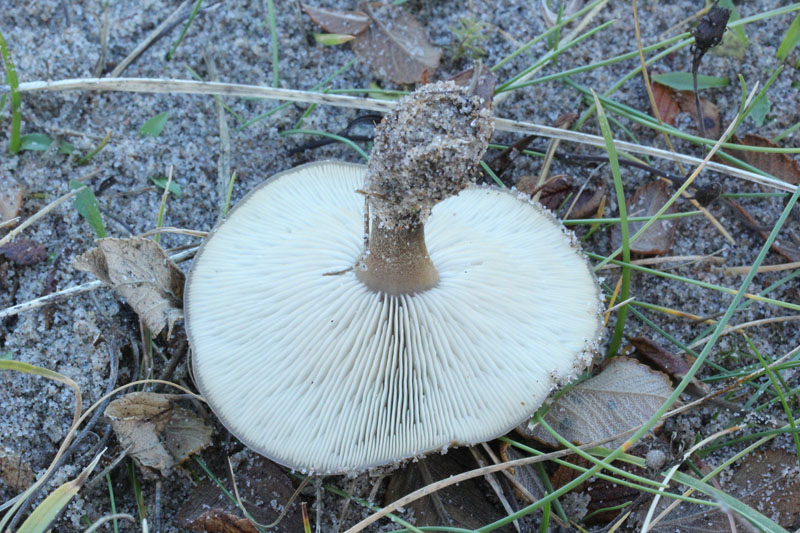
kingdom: Fungi
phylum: Basidiomycota
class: Agaricomycetes
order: Agaricales
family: Tricholomataceae
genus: Melanoleuca
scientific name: Melanoleuca ammophila
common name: gråbladet munkehat
